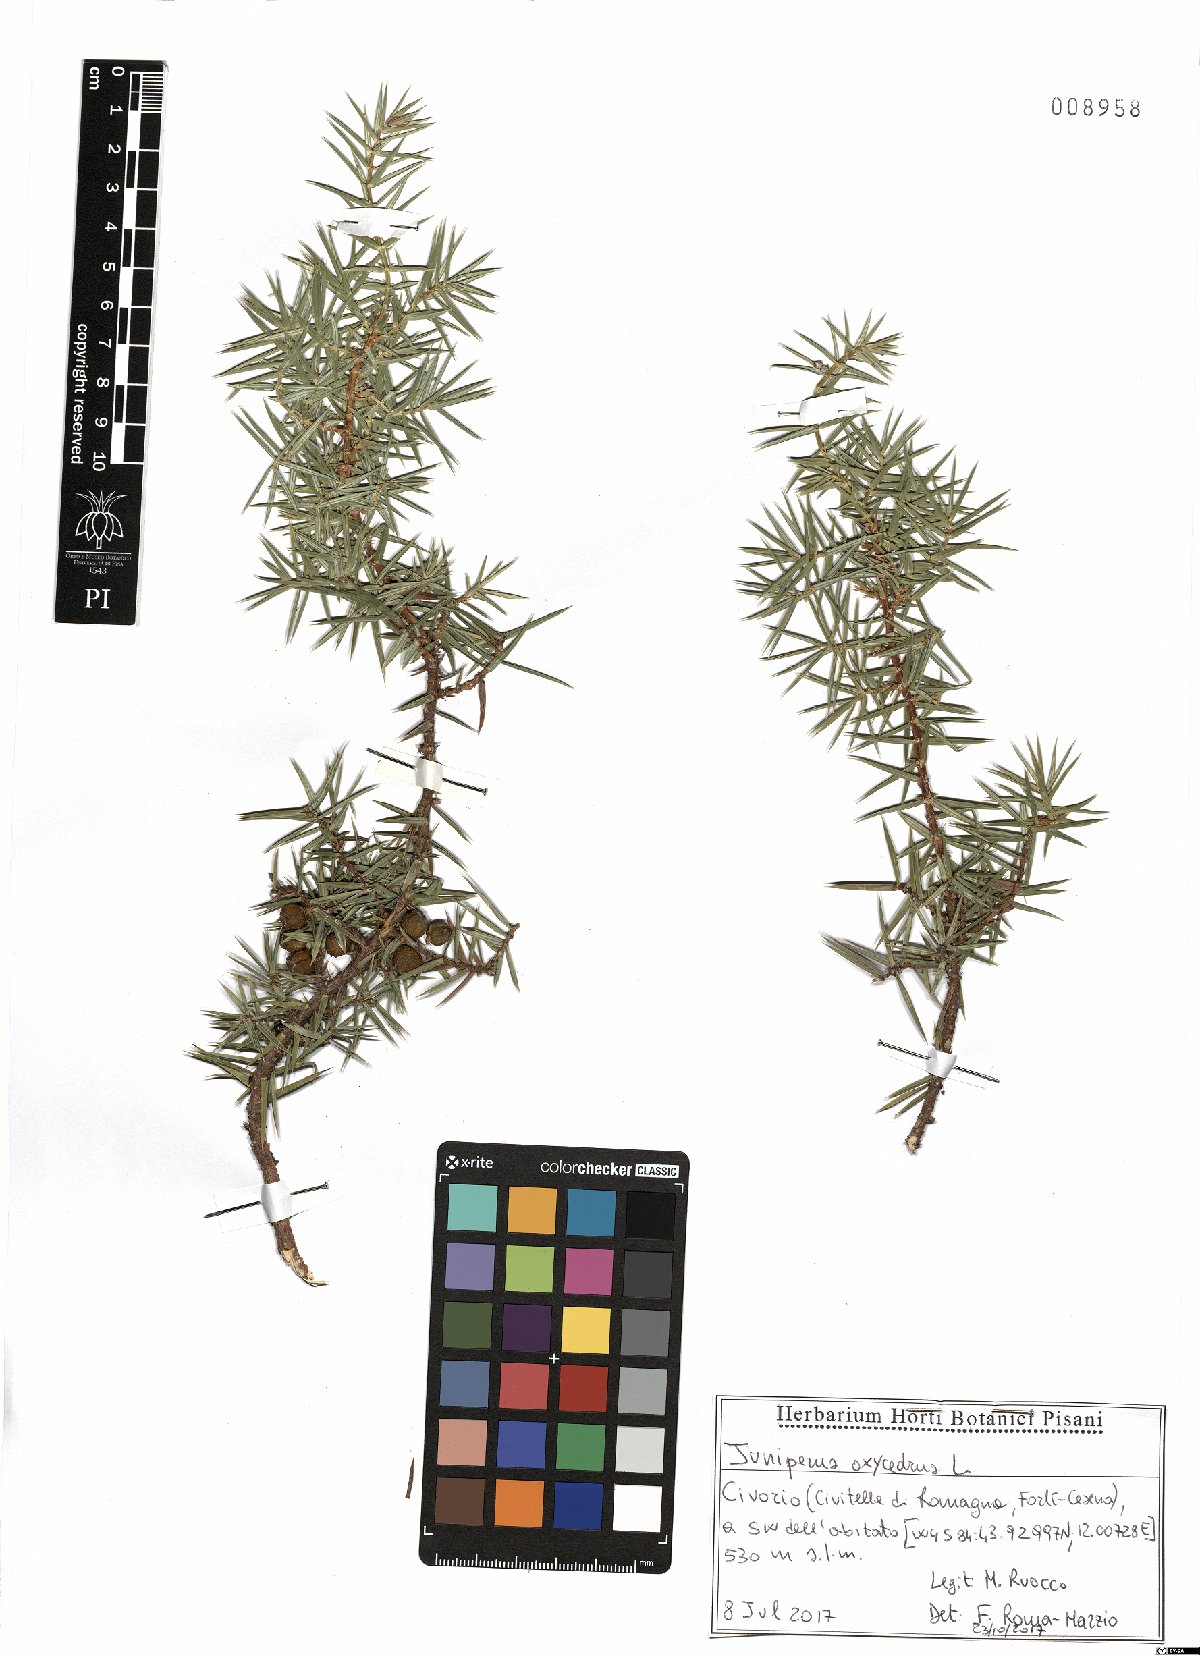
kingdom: Plantae
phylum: Tracheophyta
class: Pinopsida
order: Pinales
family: Cupressaceae
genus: Juniperus
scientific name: Juniperus oxycedrus
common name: Prickly juniper
